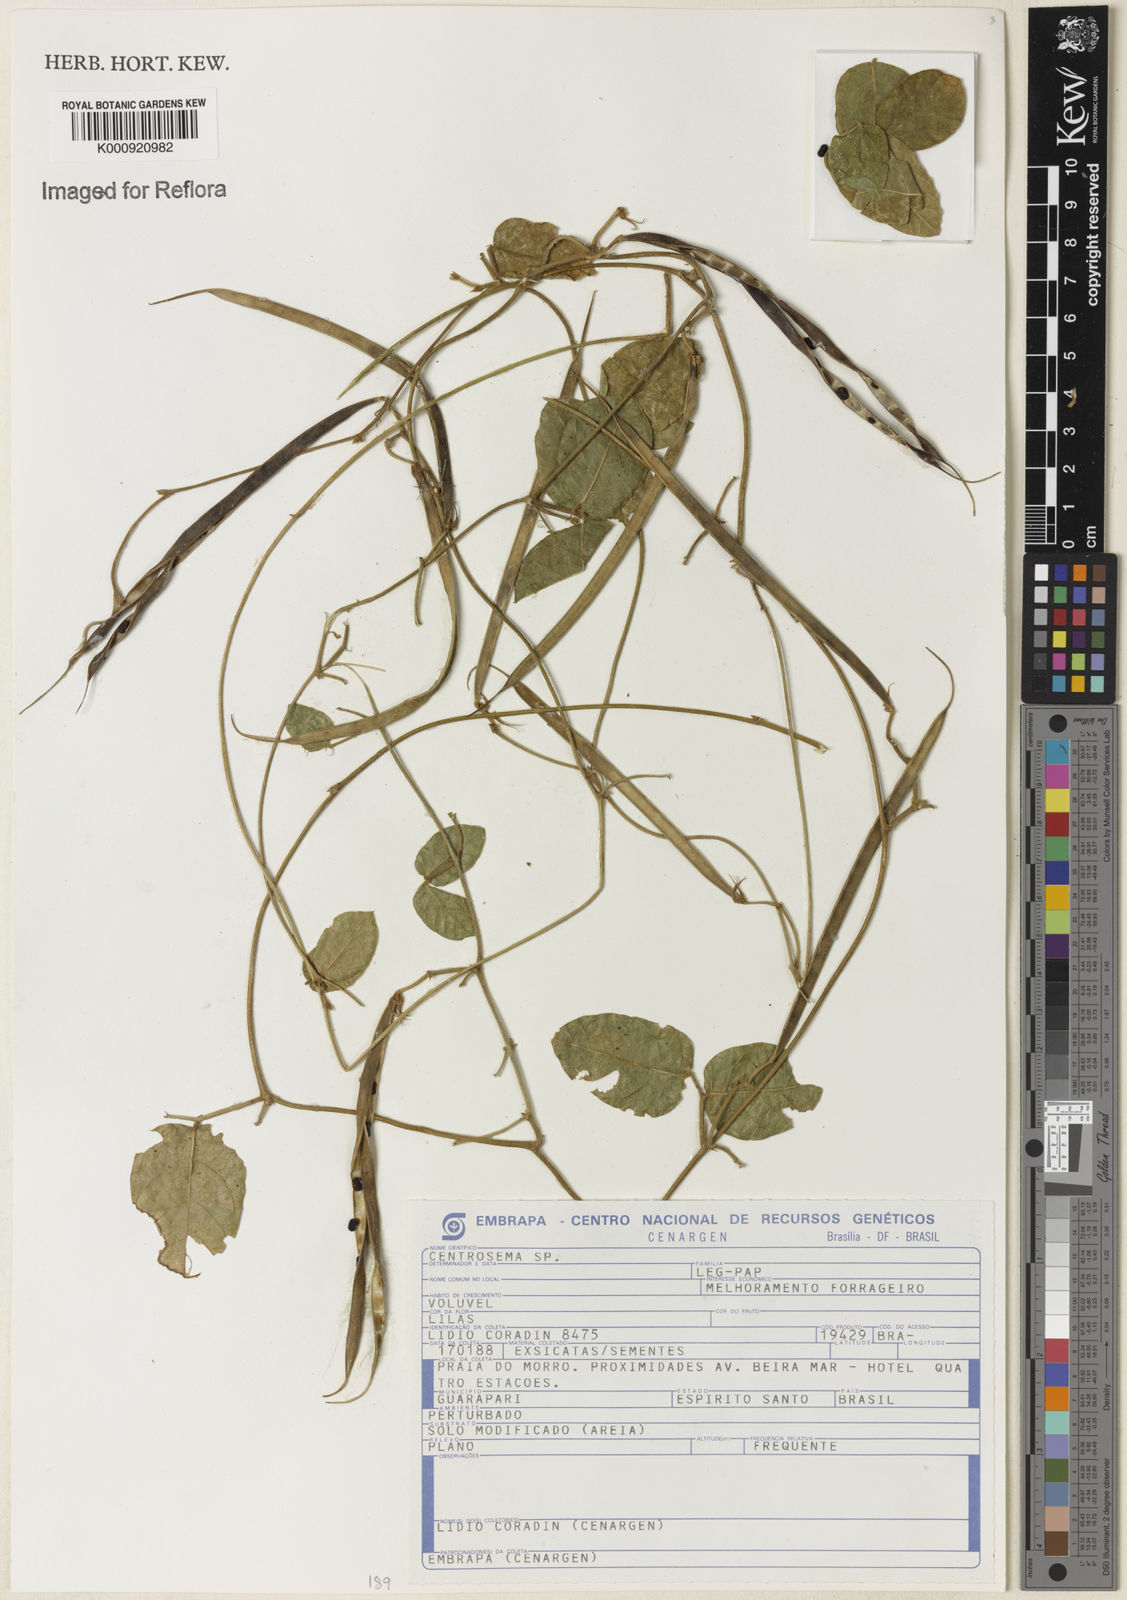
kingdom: Plantae
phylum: Tracheophyta
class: Magnoliopsida
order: Fabales
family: Fabaceae
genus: Centrosema
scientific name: Centrosema
